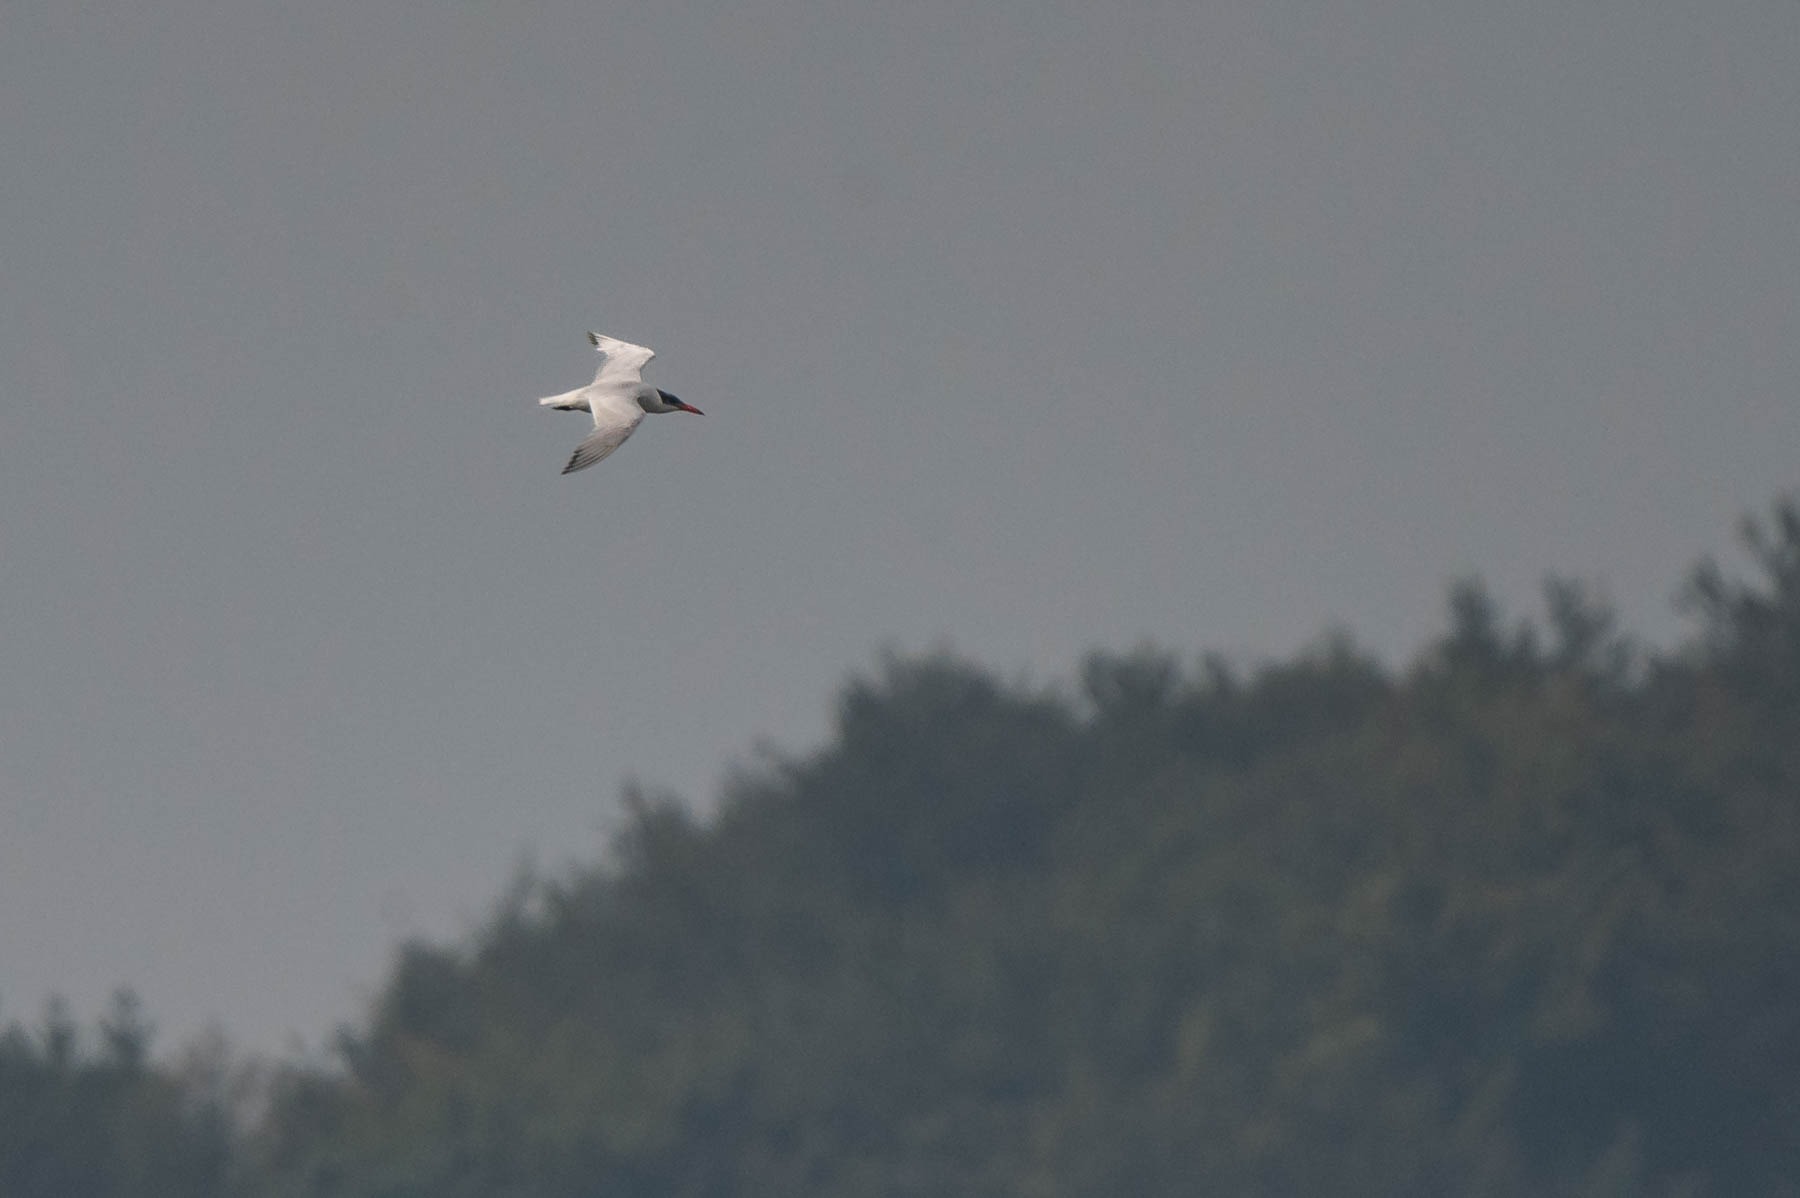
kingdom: Animalia
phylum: Chordata
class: Aves
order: Charadriiformes
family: Laridae
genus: Hydroprogne
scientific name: Hydroprogne caspia
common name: Rovterne
